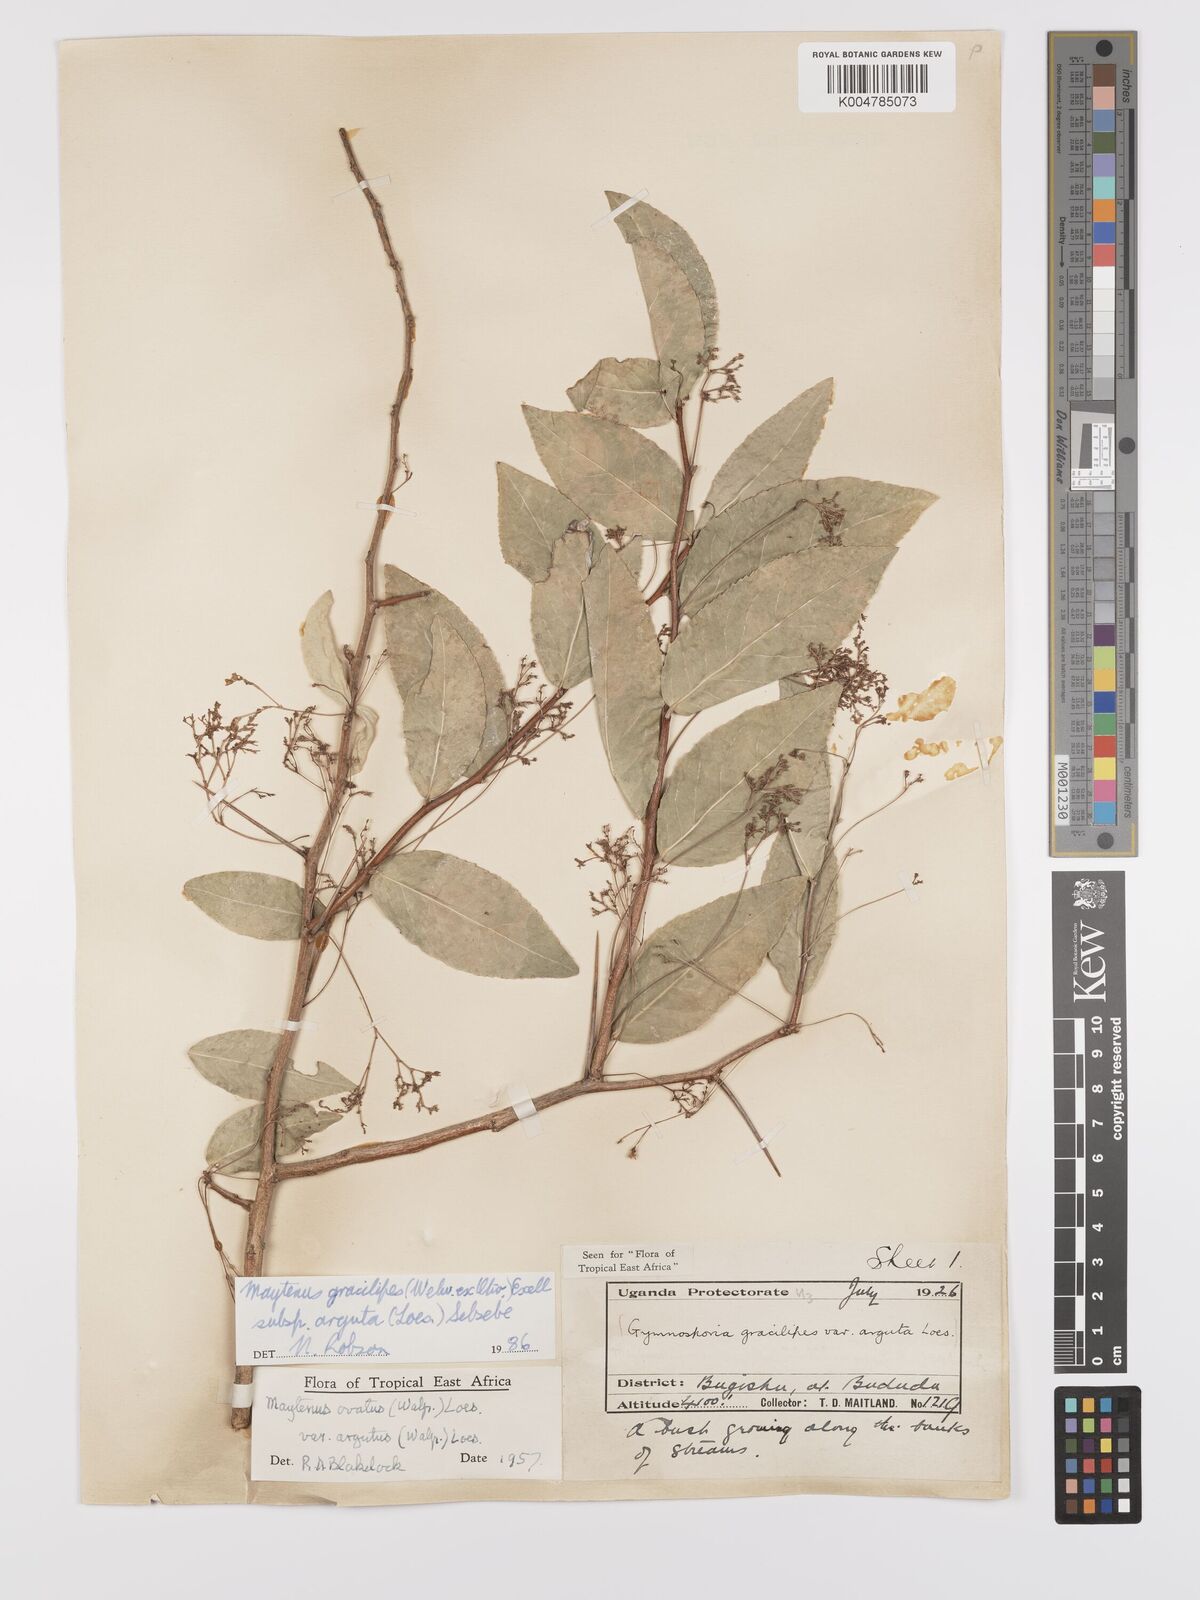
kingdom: Plantae
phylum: Tracheophyta
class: Magnoliopsida
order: Celastrales
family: Celastraceae
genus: Gymnosporia
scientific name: Gymnosporia gracilipes
